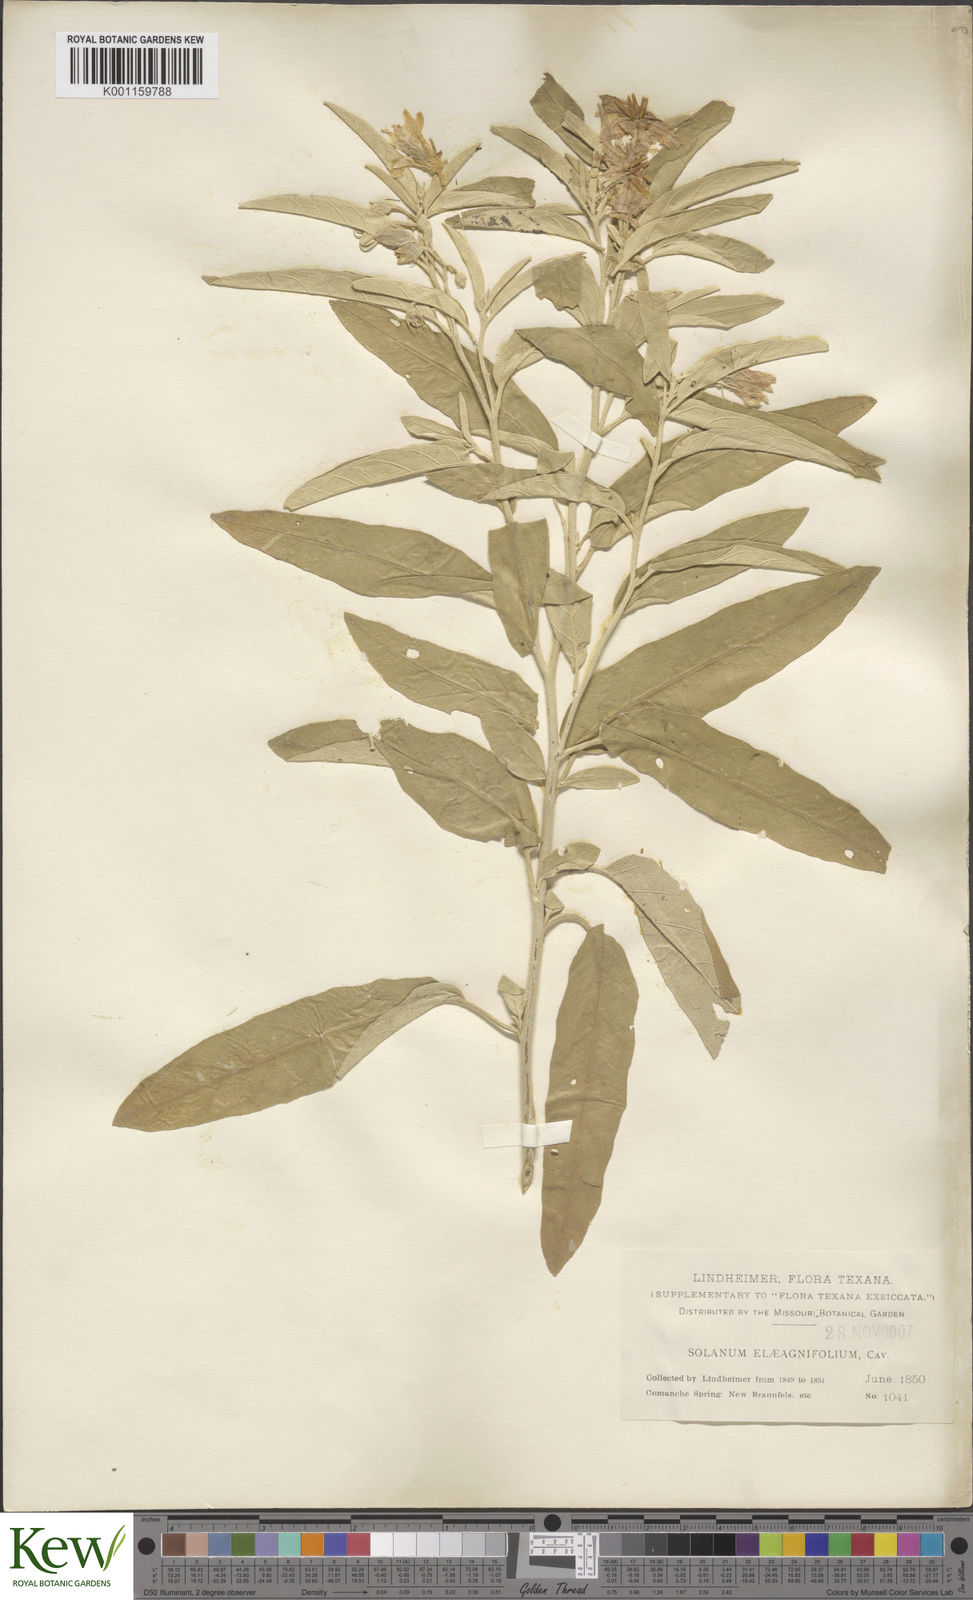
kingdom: Plantae
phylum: Tracheophyta
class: Magnoliopsida
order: Solanales
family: Solanaceae
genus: Solanum
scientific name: Solanum
